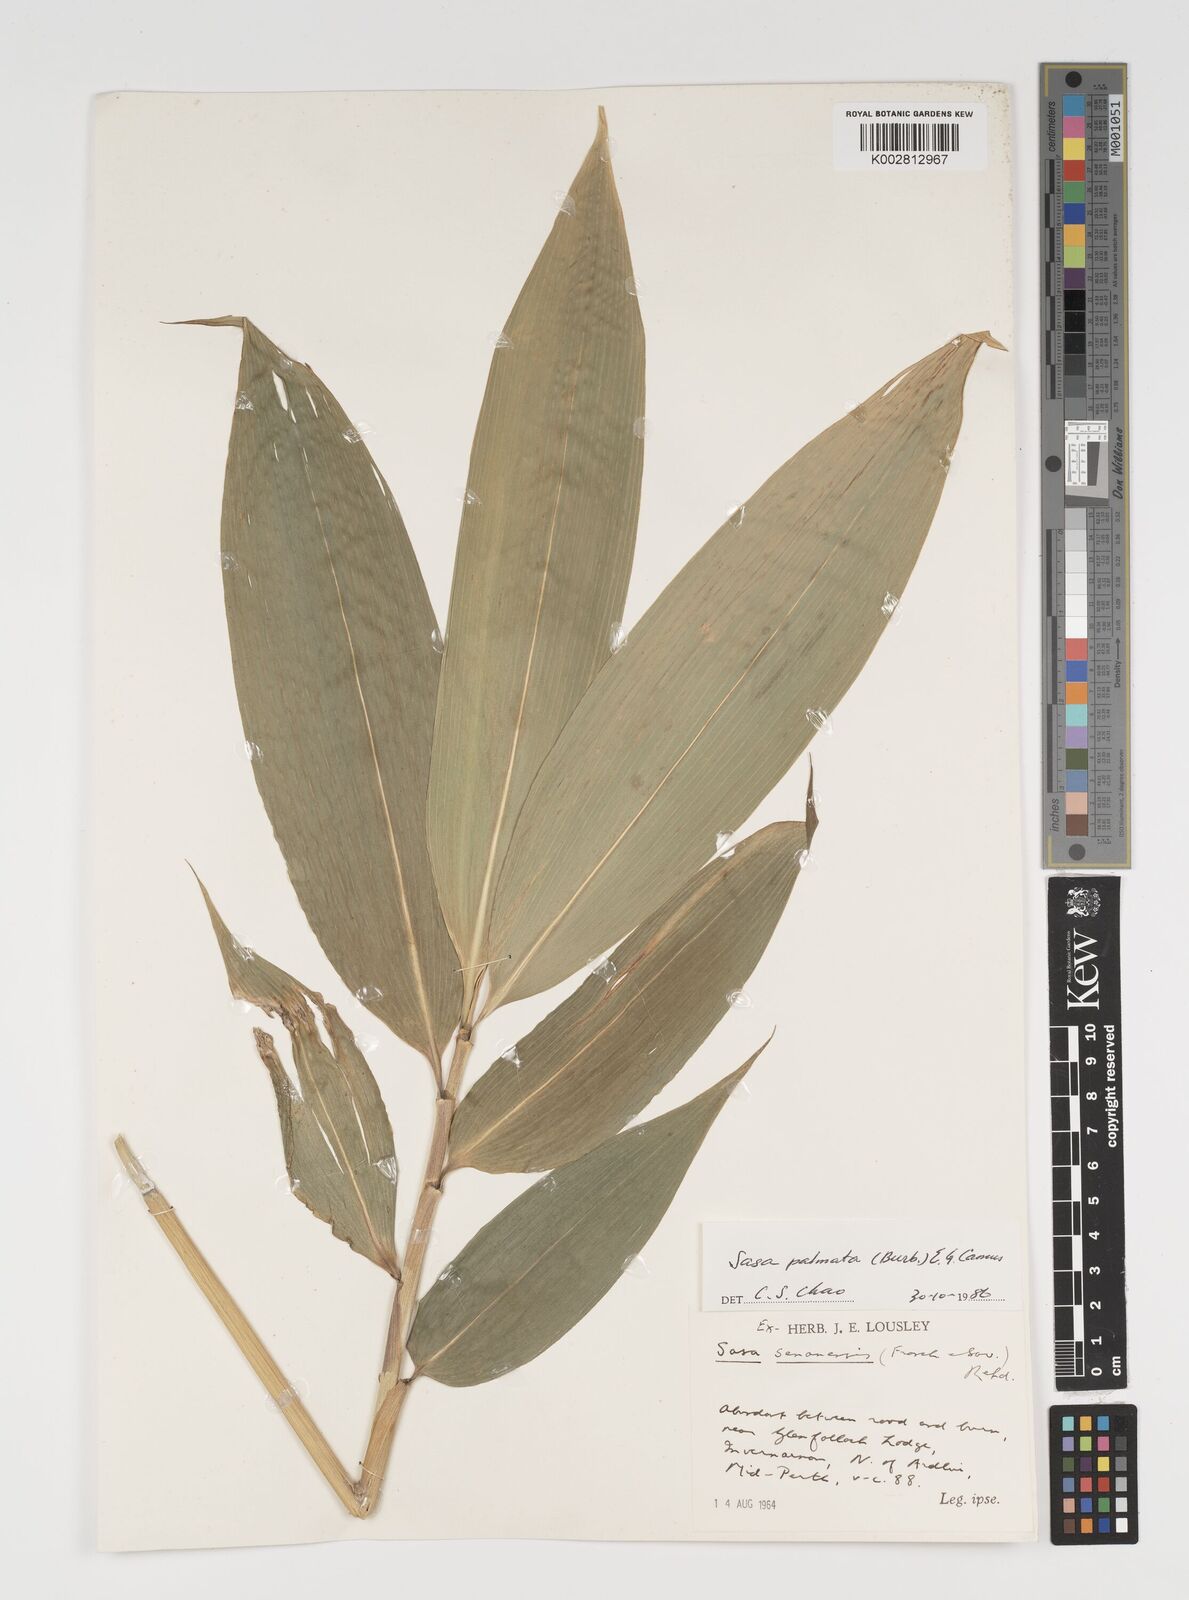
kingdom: Plantae
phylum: Tracheophyta
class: Liliopsida
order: Poales
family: Poaceae
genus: Sasa
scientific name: Sasa palmata
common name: Broad-leaved bamboo
